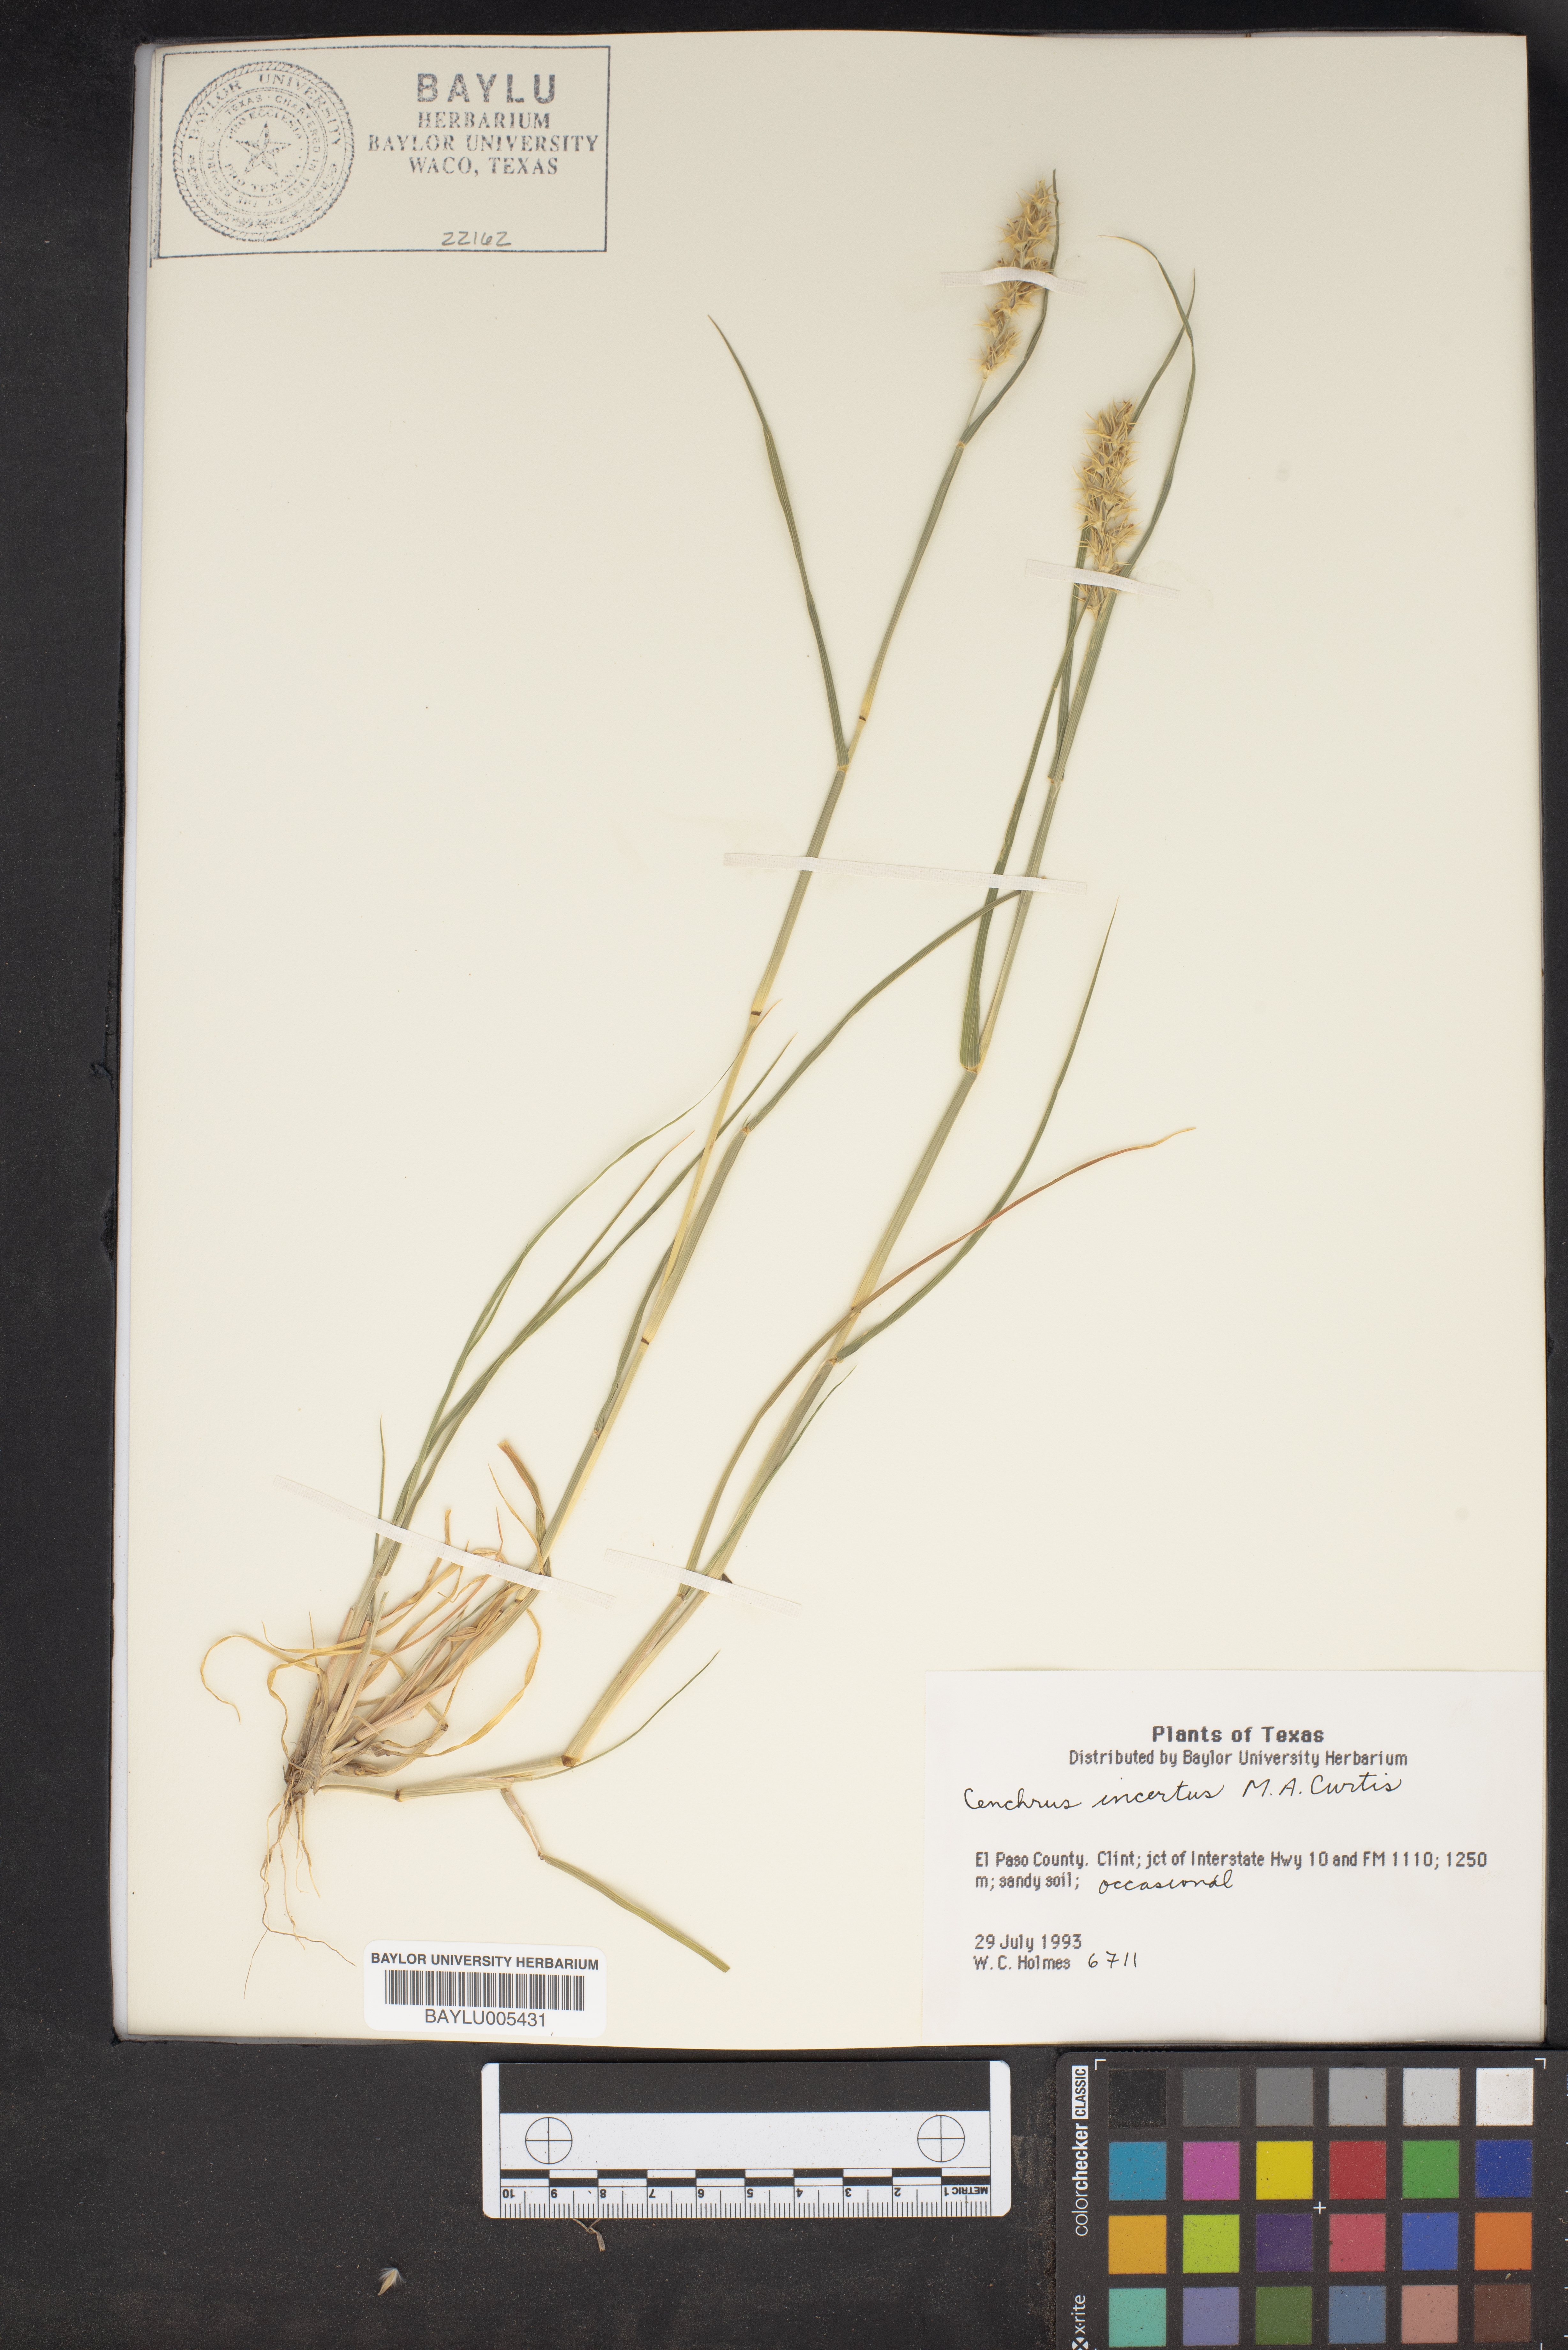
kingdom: Plantae
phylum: Tracheophyta
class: Liliopsida
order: Poales
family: Poaceae
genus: Cenchrus
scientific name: Cenchrus spinifex
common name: Coast sandbur
